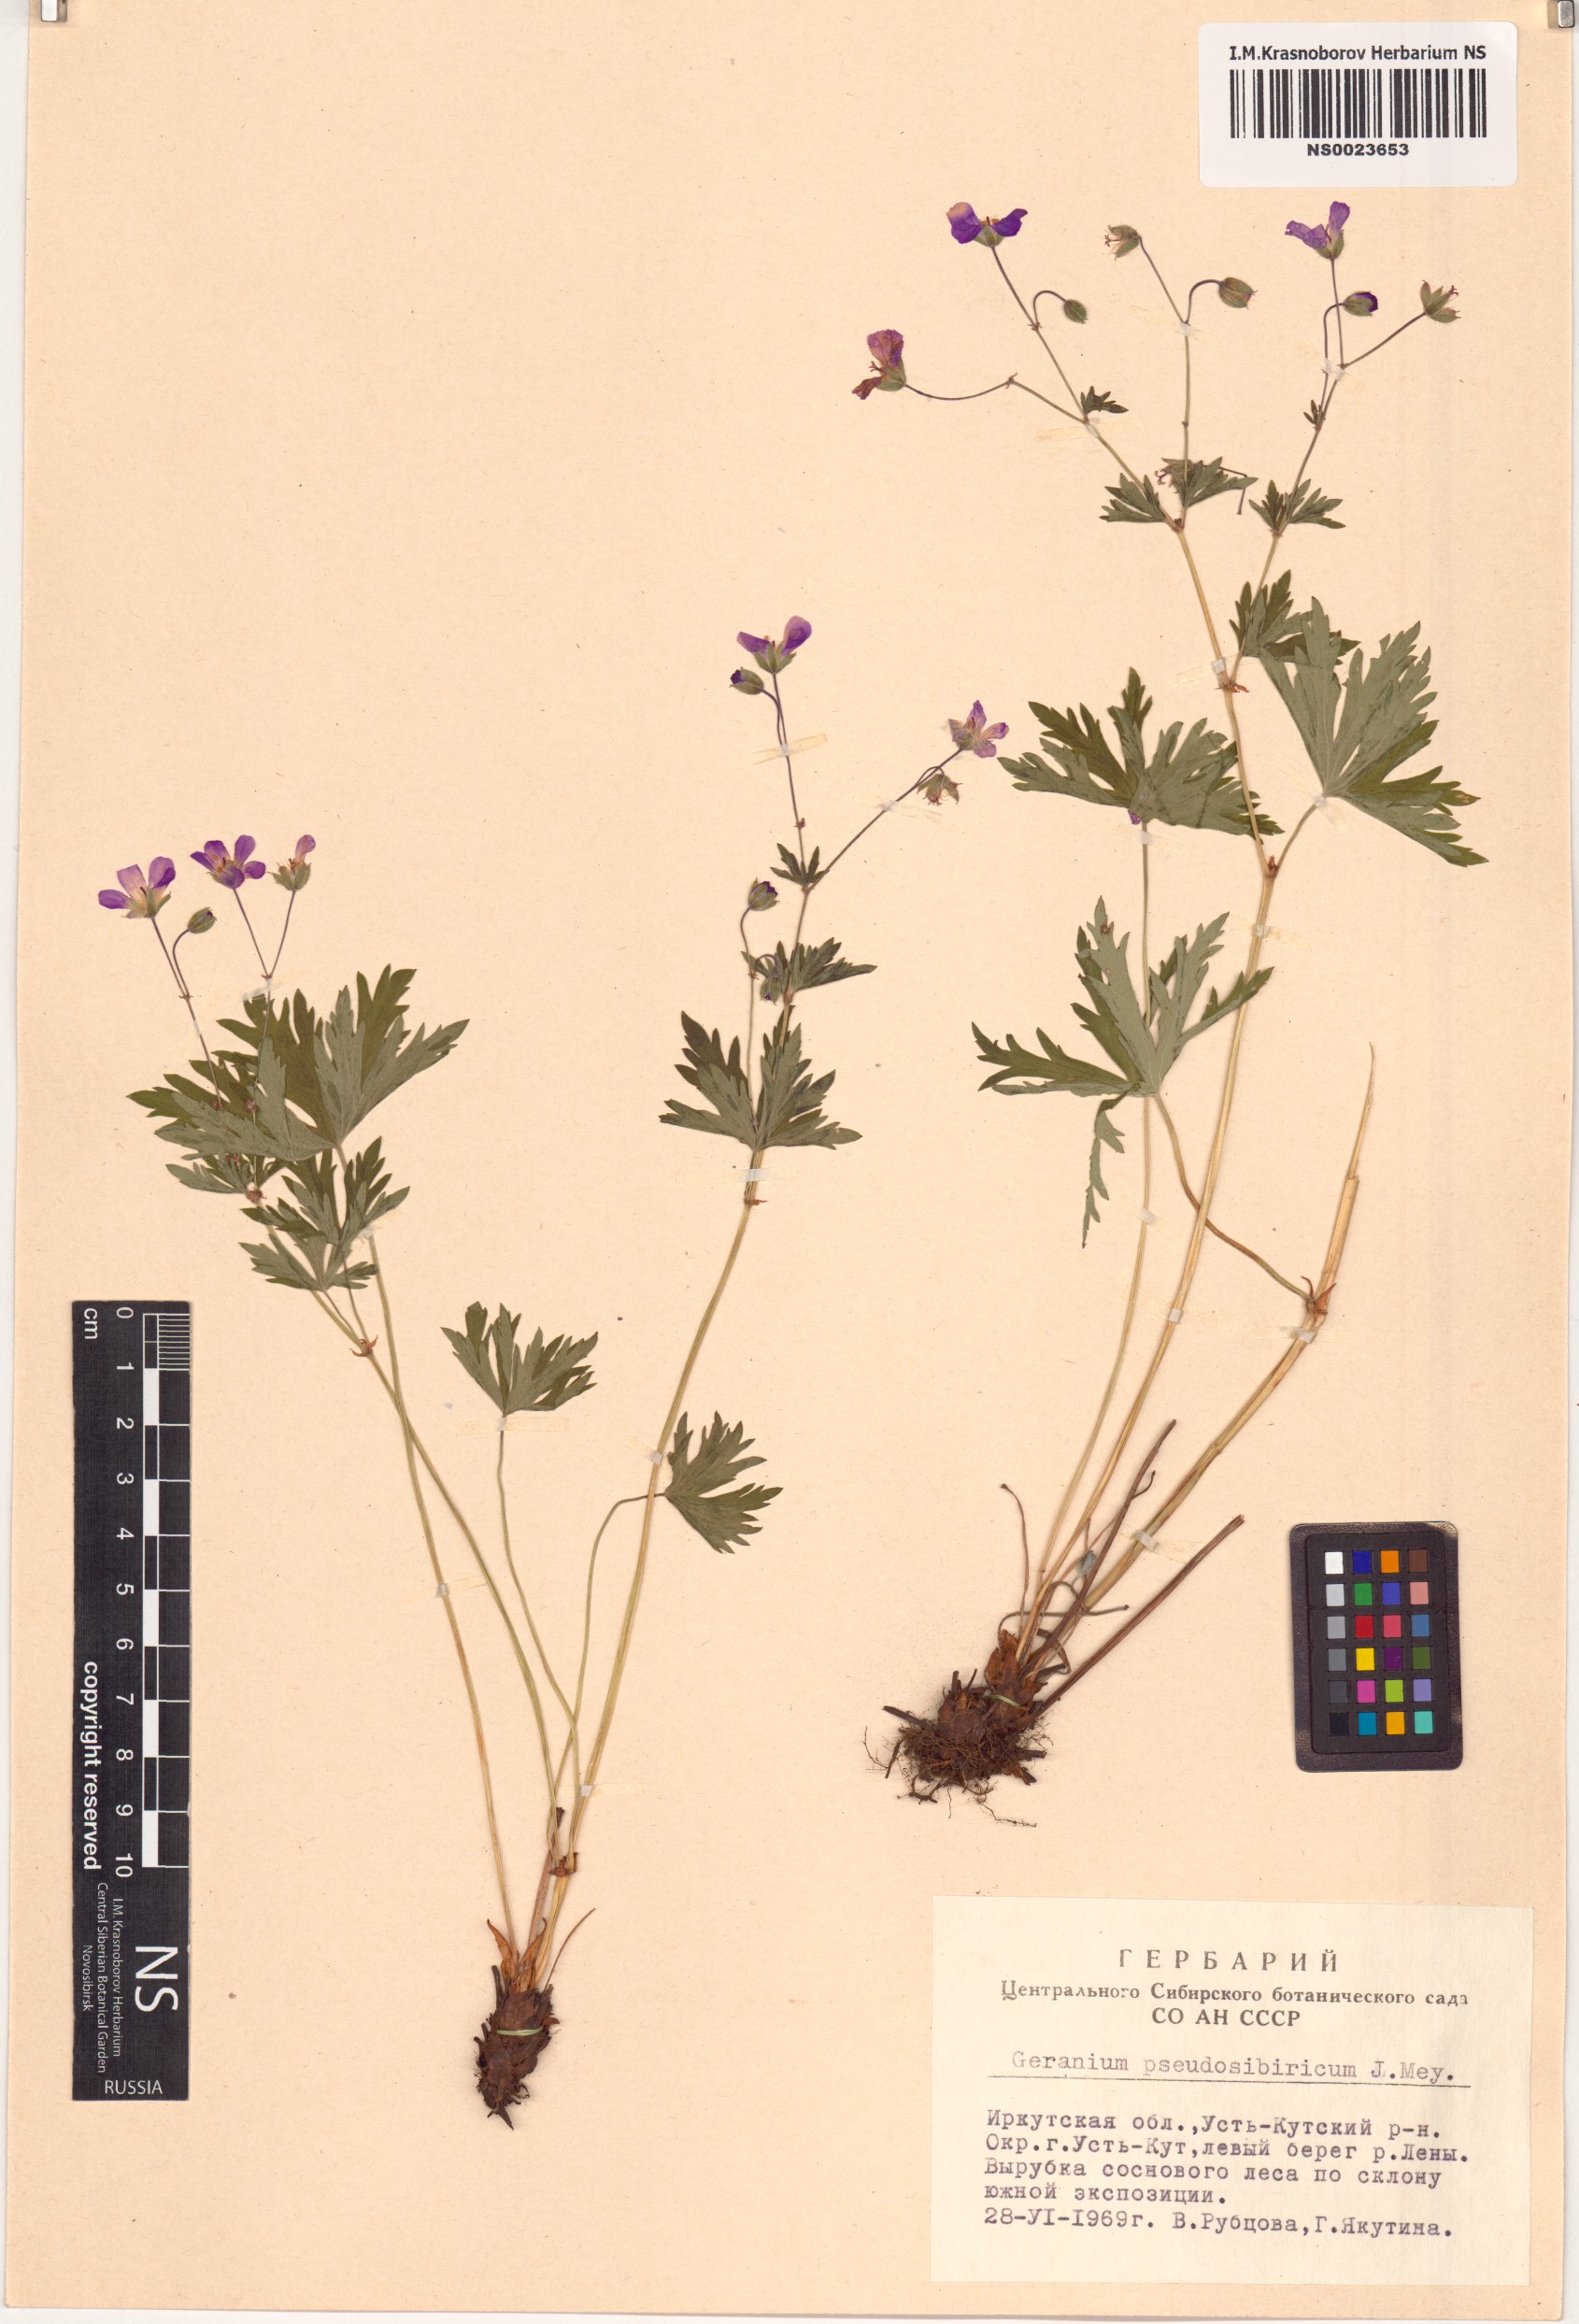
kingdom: Plantae
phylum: Tracheophyta
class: Magnoliopsida
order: Geraniales
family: Geraniaceae
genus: Geranium
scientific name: Geranium pseudosibiricum
